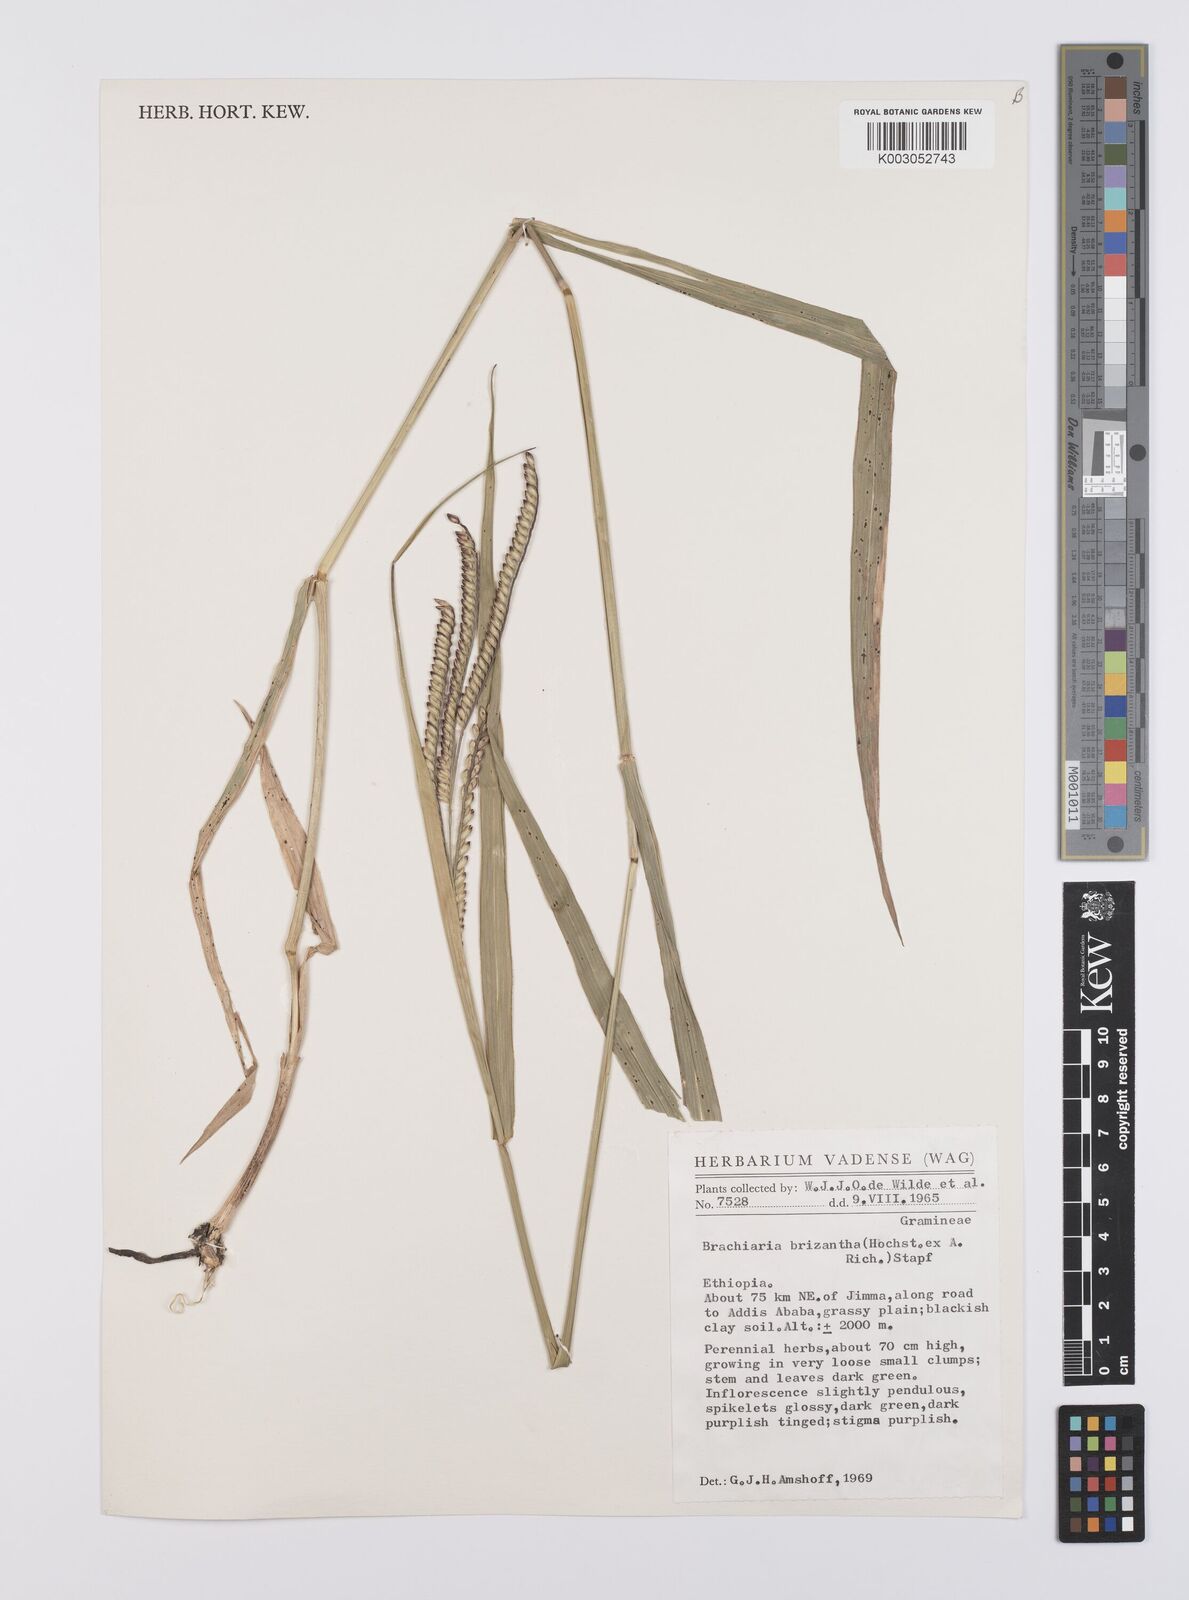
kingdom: Plantae
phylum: Tracheophyta
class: Liliopsida
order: Poales
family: Poaceae
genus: Urochloa
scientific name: Urochloa brizantha
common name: Palisade signalgrass
